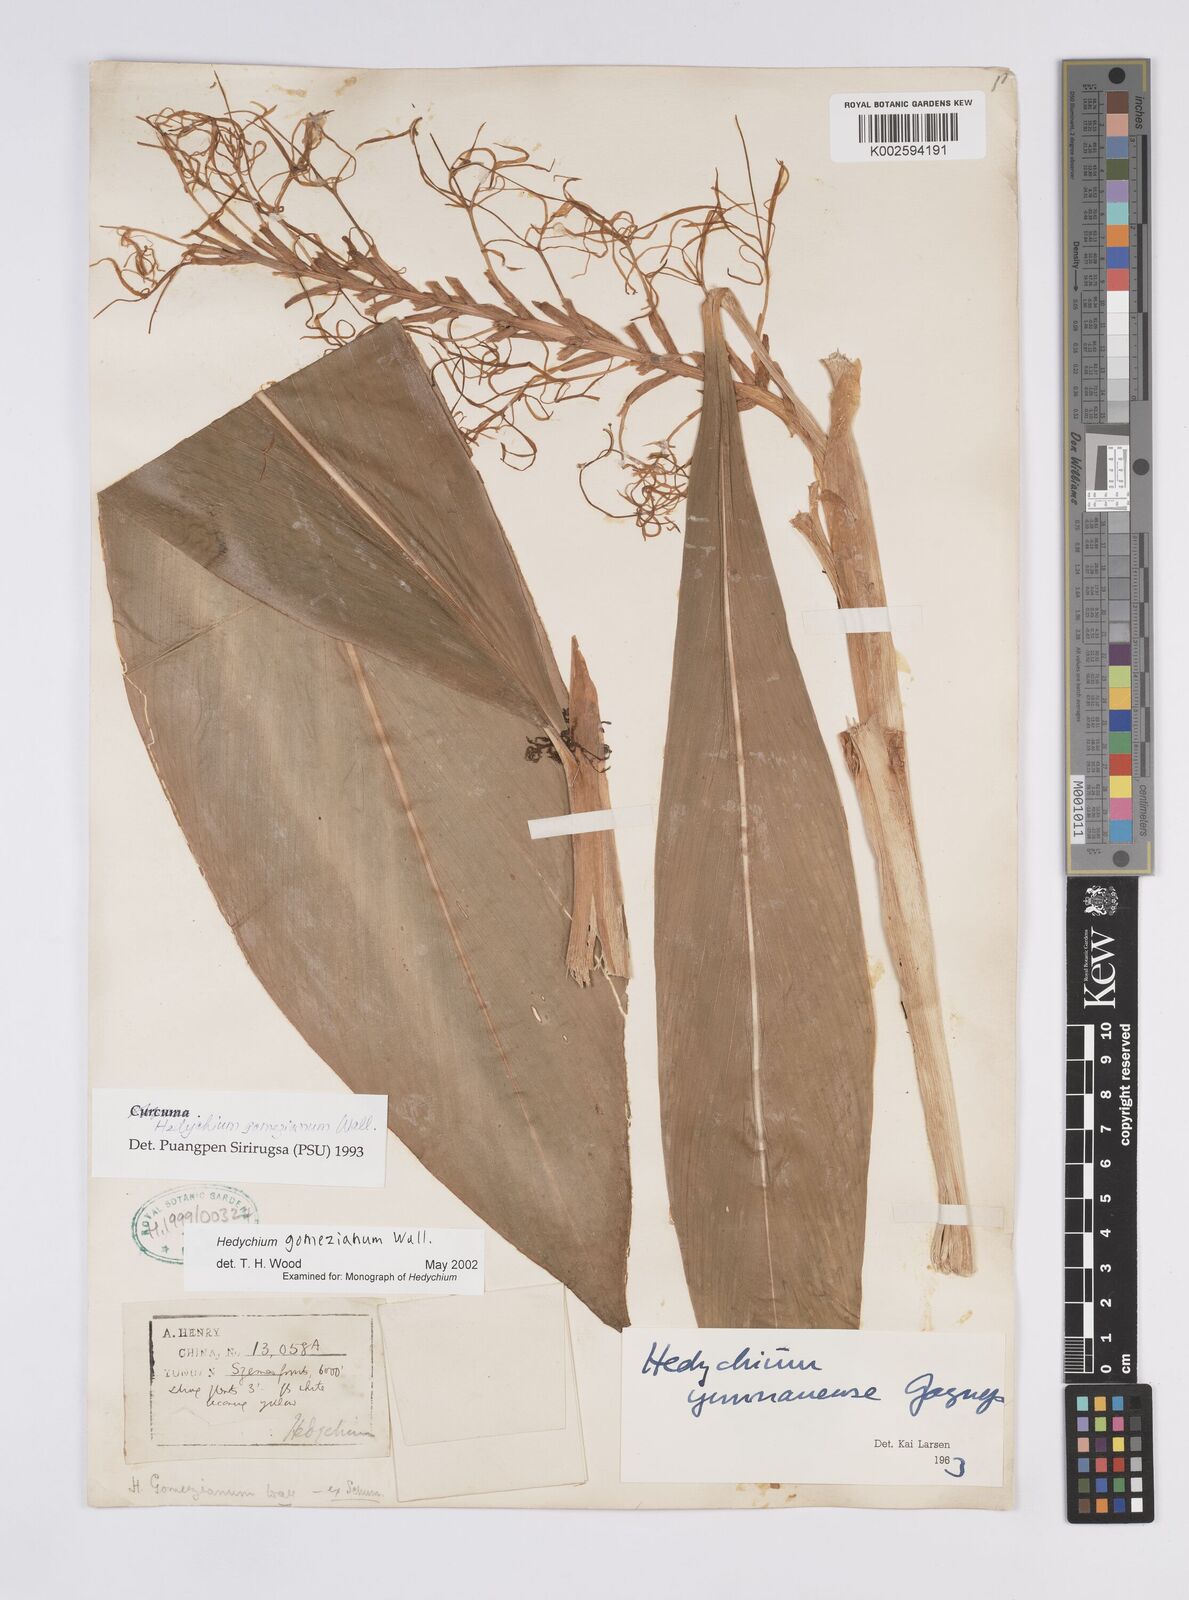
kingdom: Plantae
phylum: Tracheophyta
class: Liliopsida
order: Zingiberales
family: Zingiberaceae
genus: Hedychium
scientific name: Hedychium gomezianum
